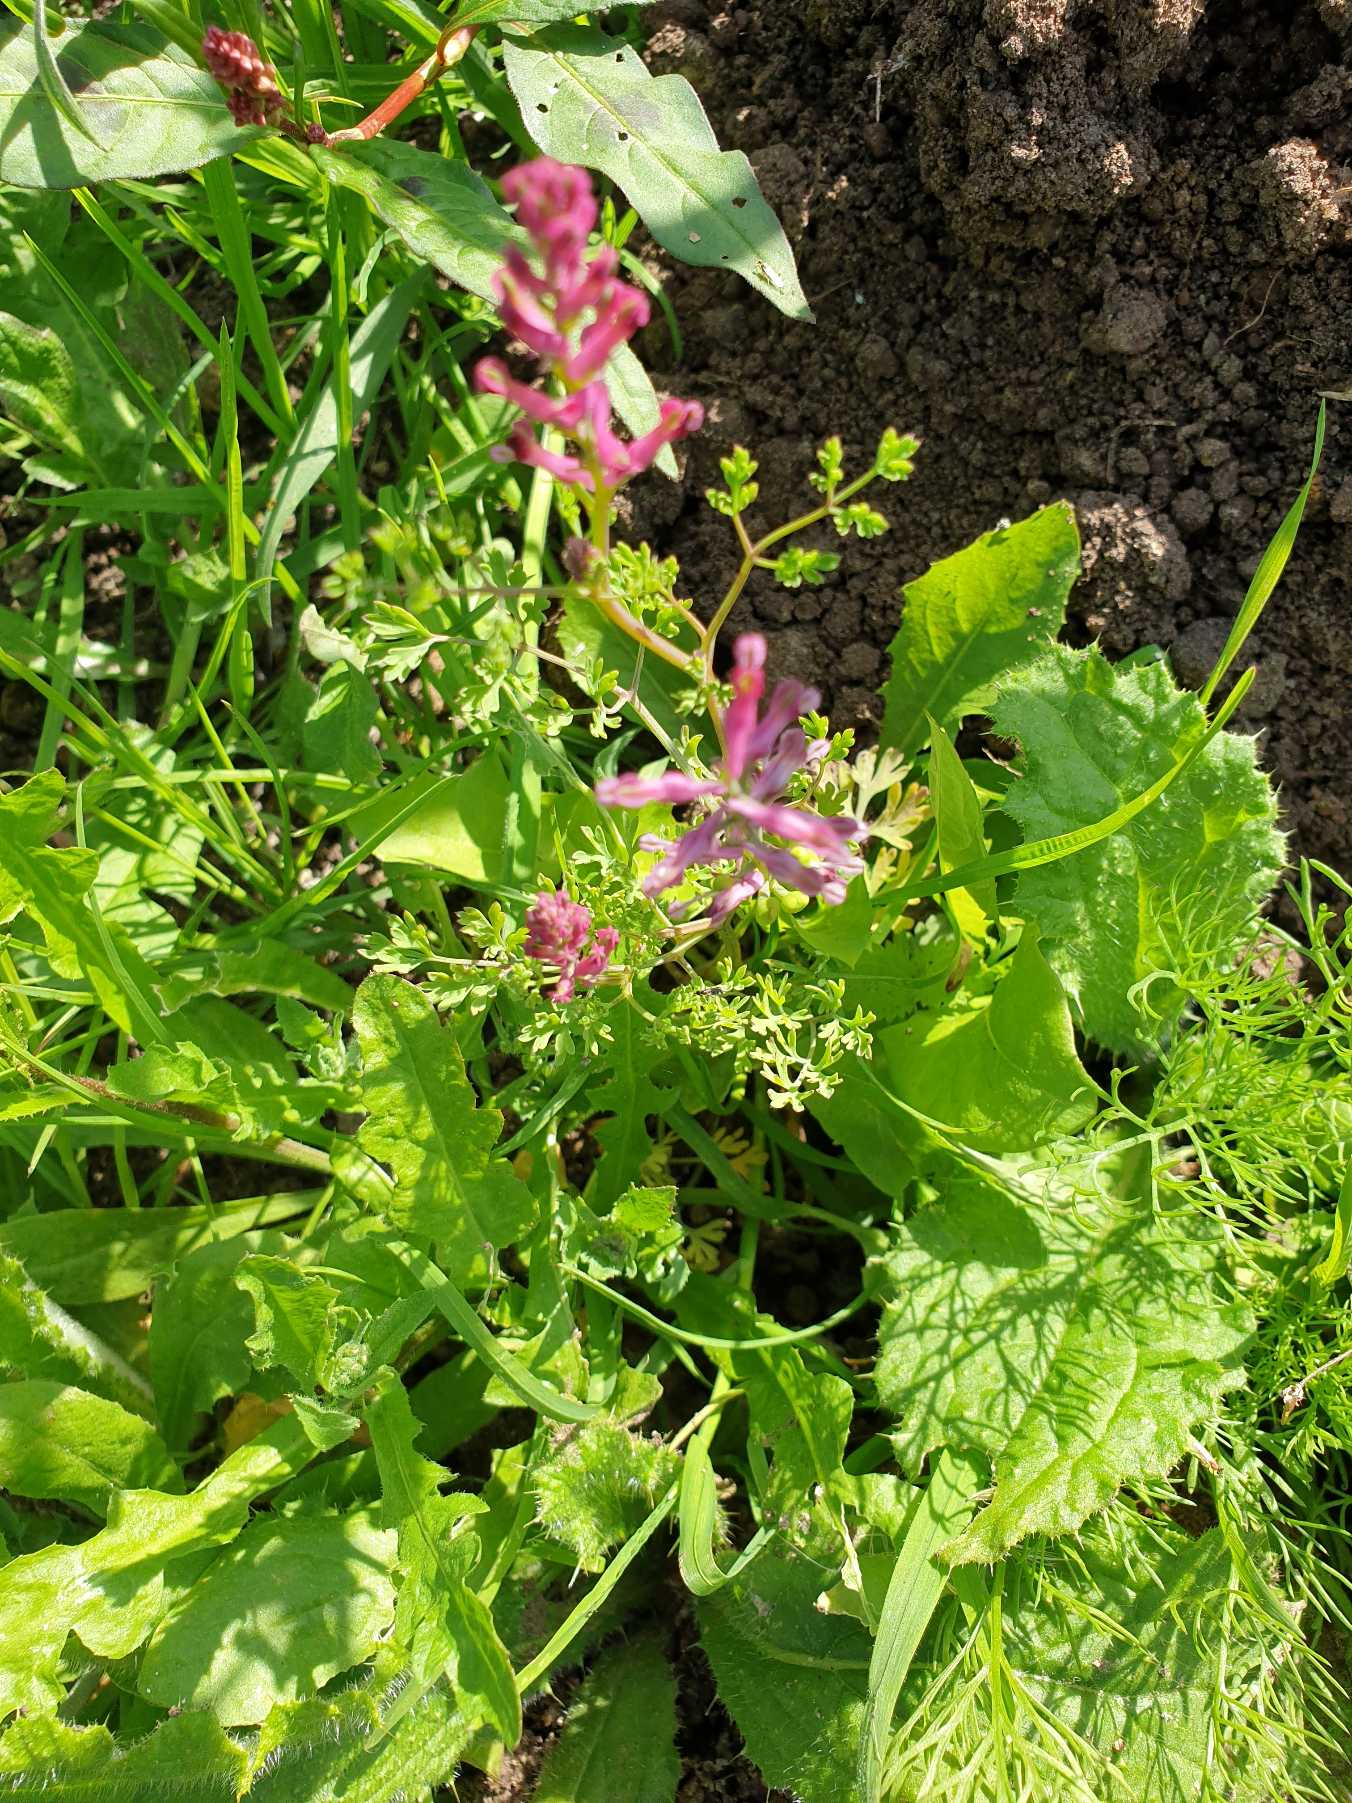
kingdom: Plantae
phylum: Tracheophyta
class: Magnoliopsida
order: Ranunculales
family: Papaveraceae
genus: Fumaria
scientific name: Fumaria officinalis
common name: Læge-jordrøg
